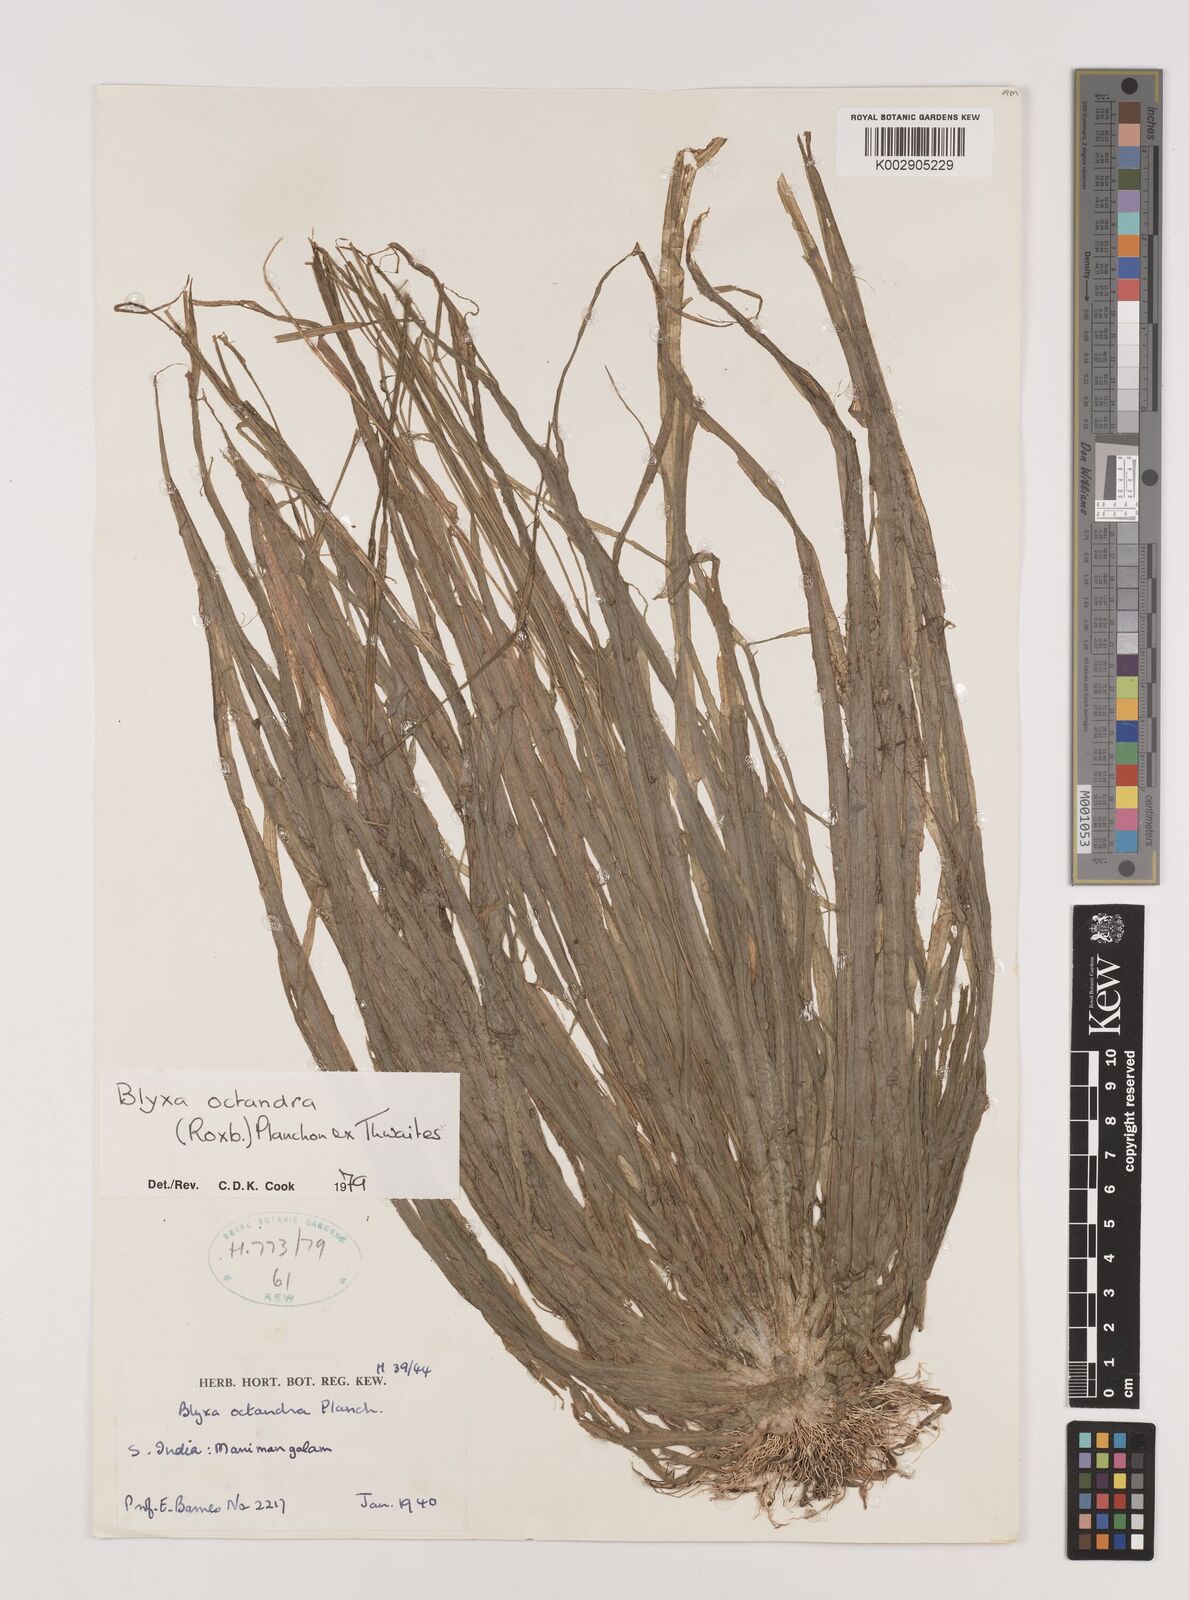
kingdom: Plantae
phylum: Tracheophyta
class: Liliopsida
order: Alismatales
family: Hydrocharitaceae
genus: Blyxa
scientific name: Blyxa octandra
